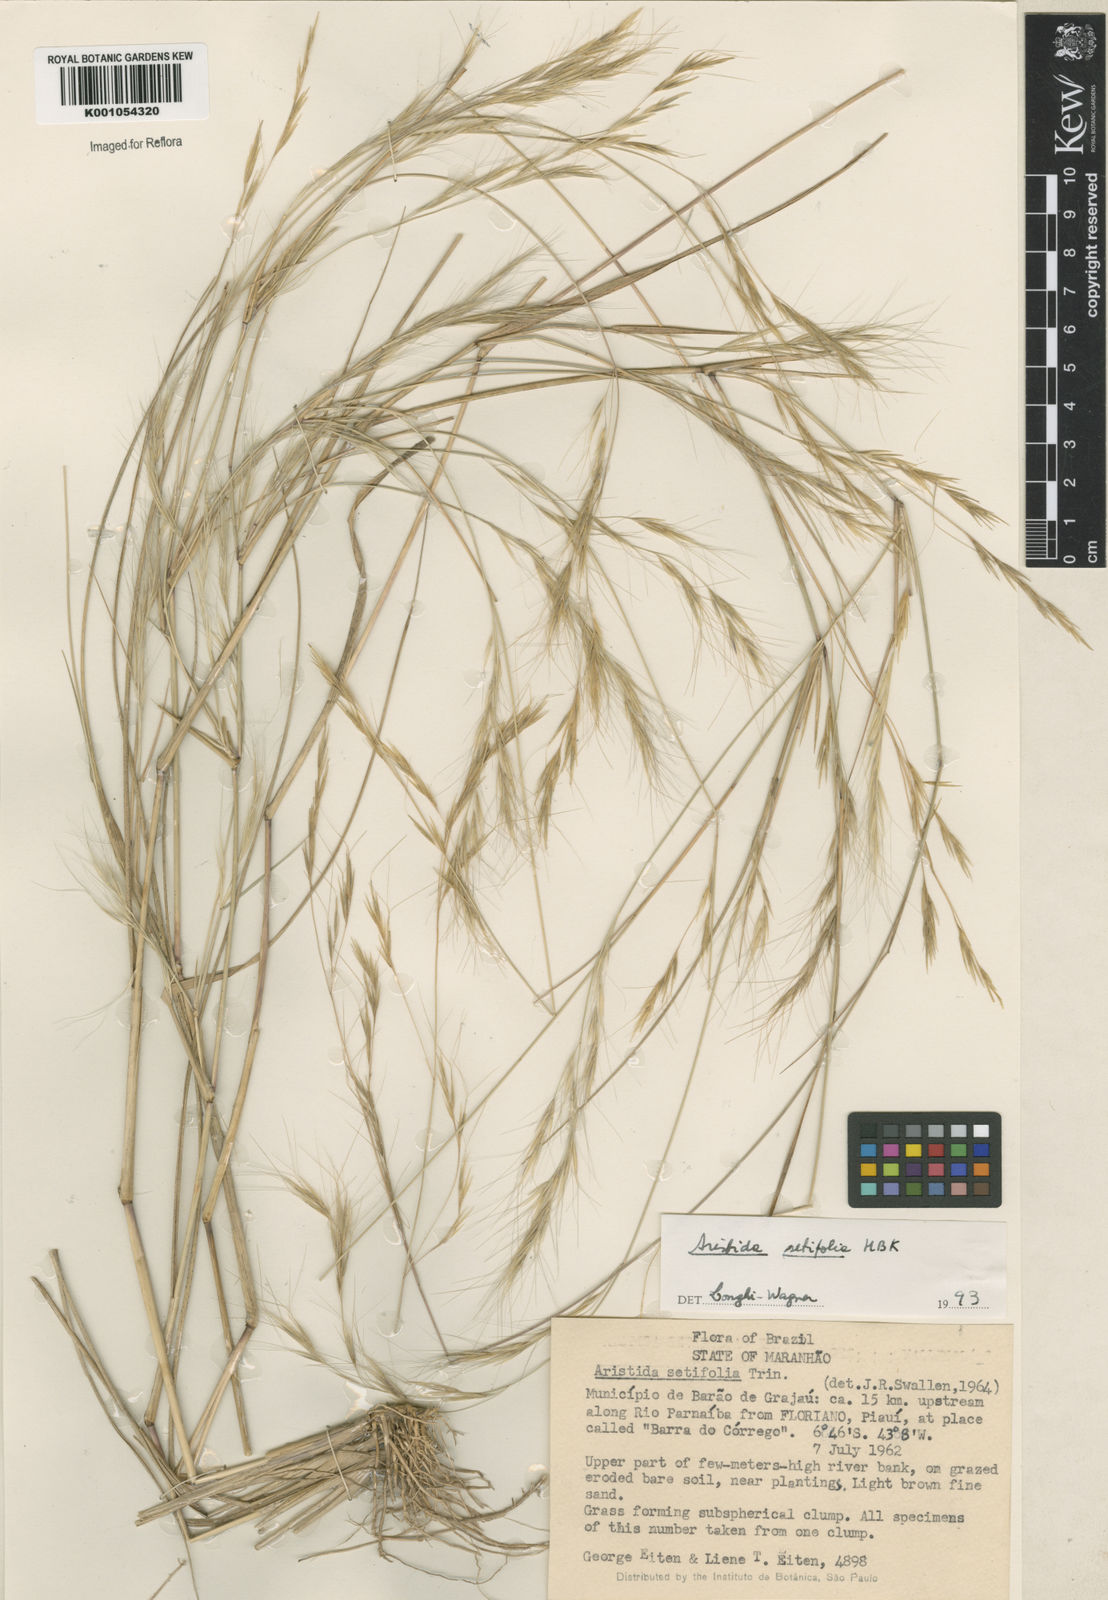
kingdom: Plantae
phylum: Tracheophyta
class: Liliopsida
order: Poales
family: Poaceae
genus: Aristida
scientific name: Aristida setifolia
